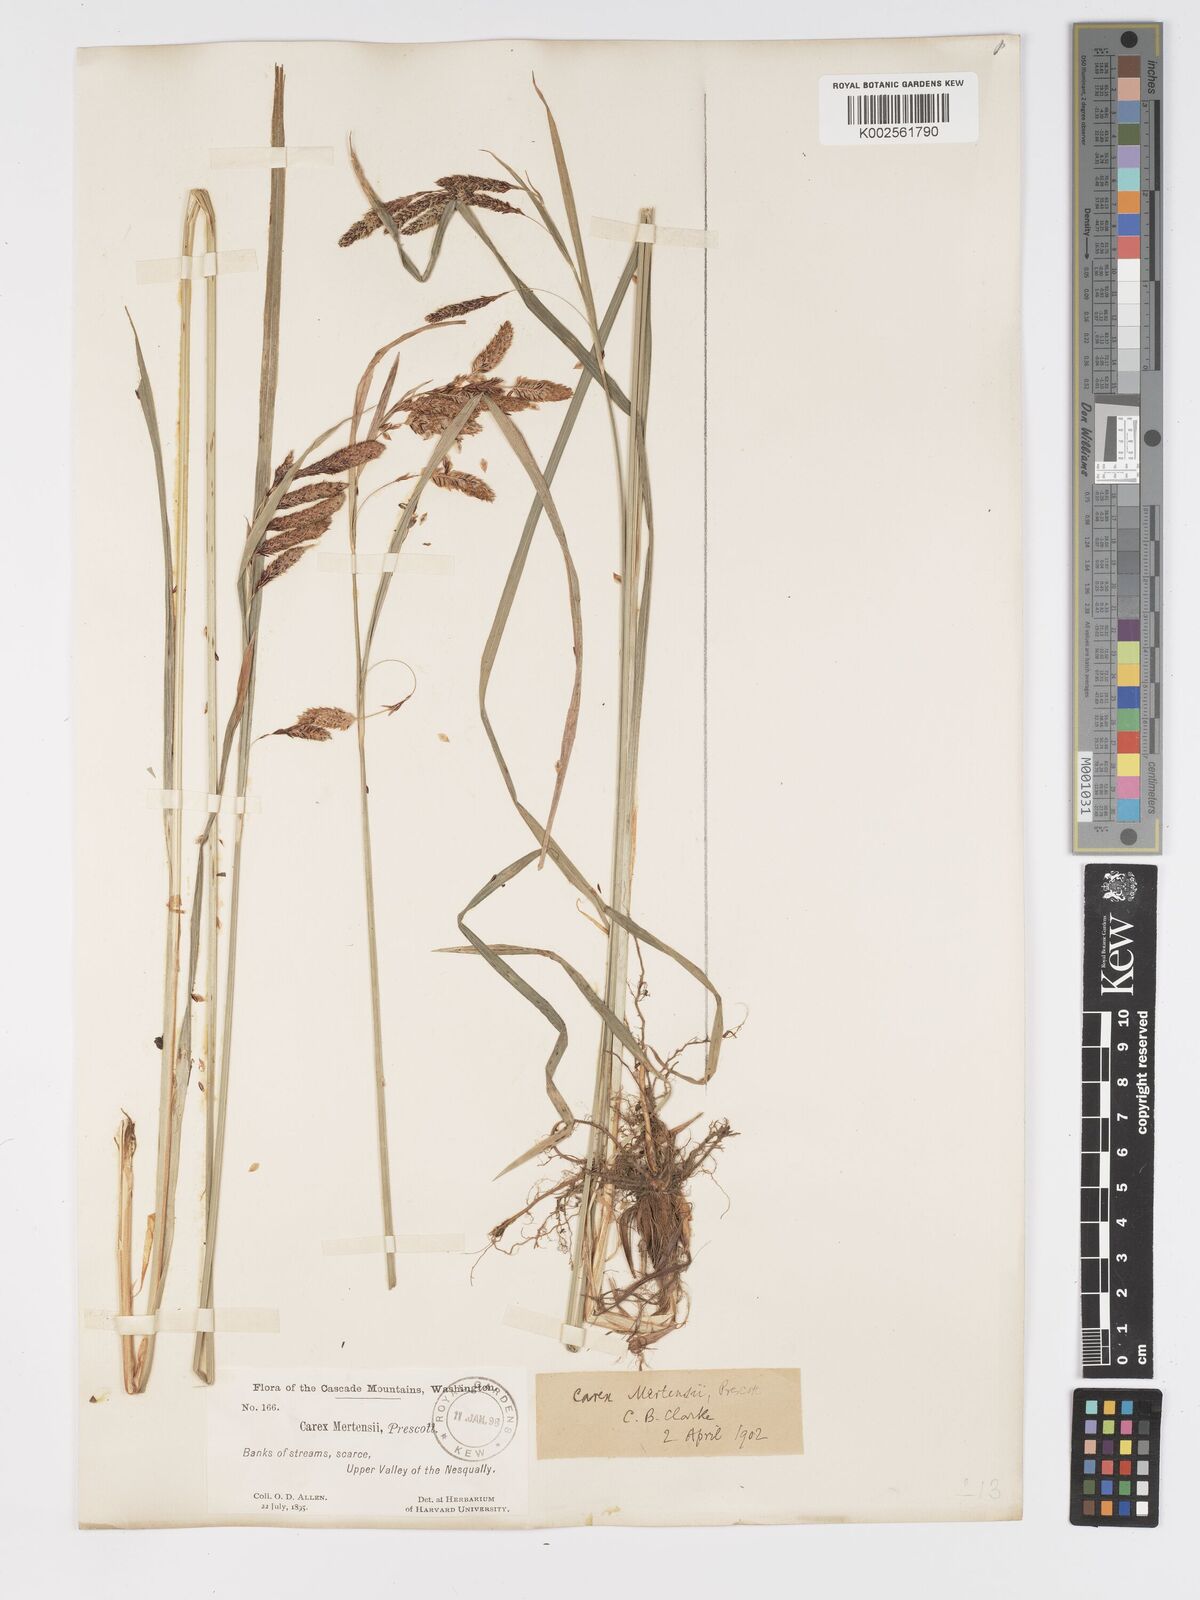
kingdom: Plantae
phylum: Tracheophyta
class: Liliopsida
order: Poales
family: Cyperaceae
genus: Carex
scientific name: Carex mertensii
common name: Mertens' sedge
